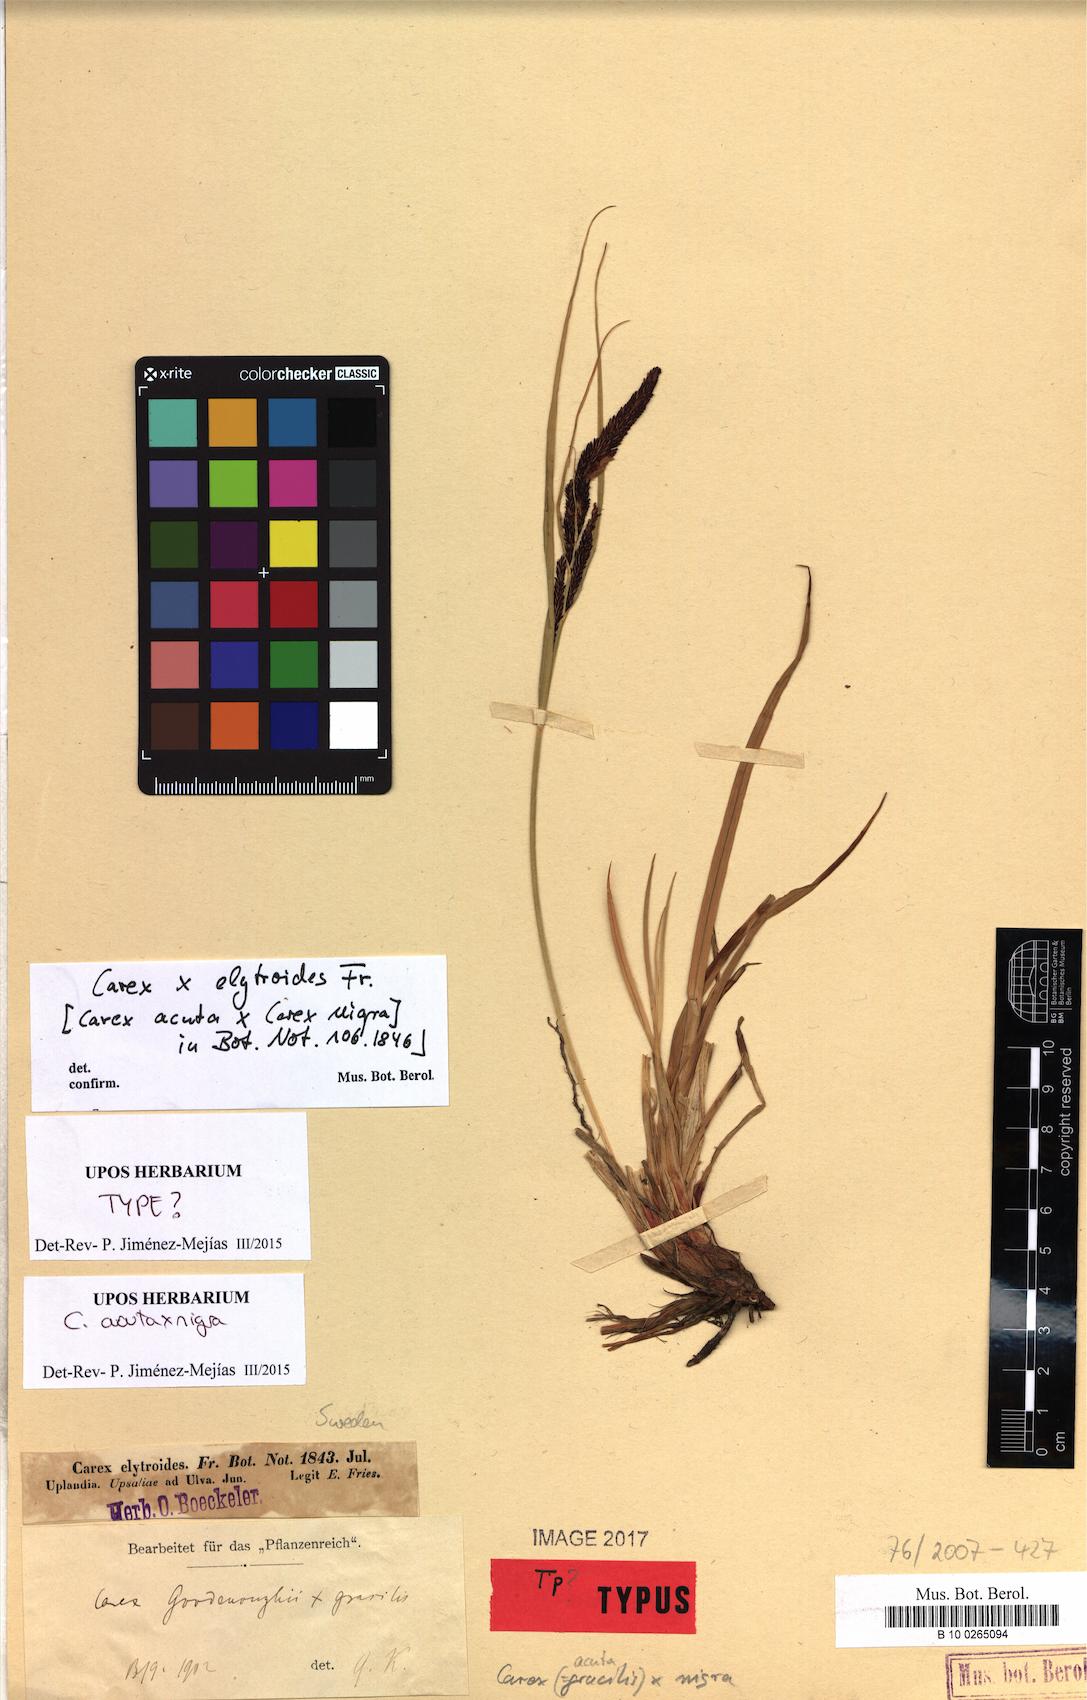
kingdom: Plantae
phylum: Tracheophyta
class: Liliopsida
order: Poales
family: Cyperaceae
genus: Carex
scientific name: Carex elytroides
